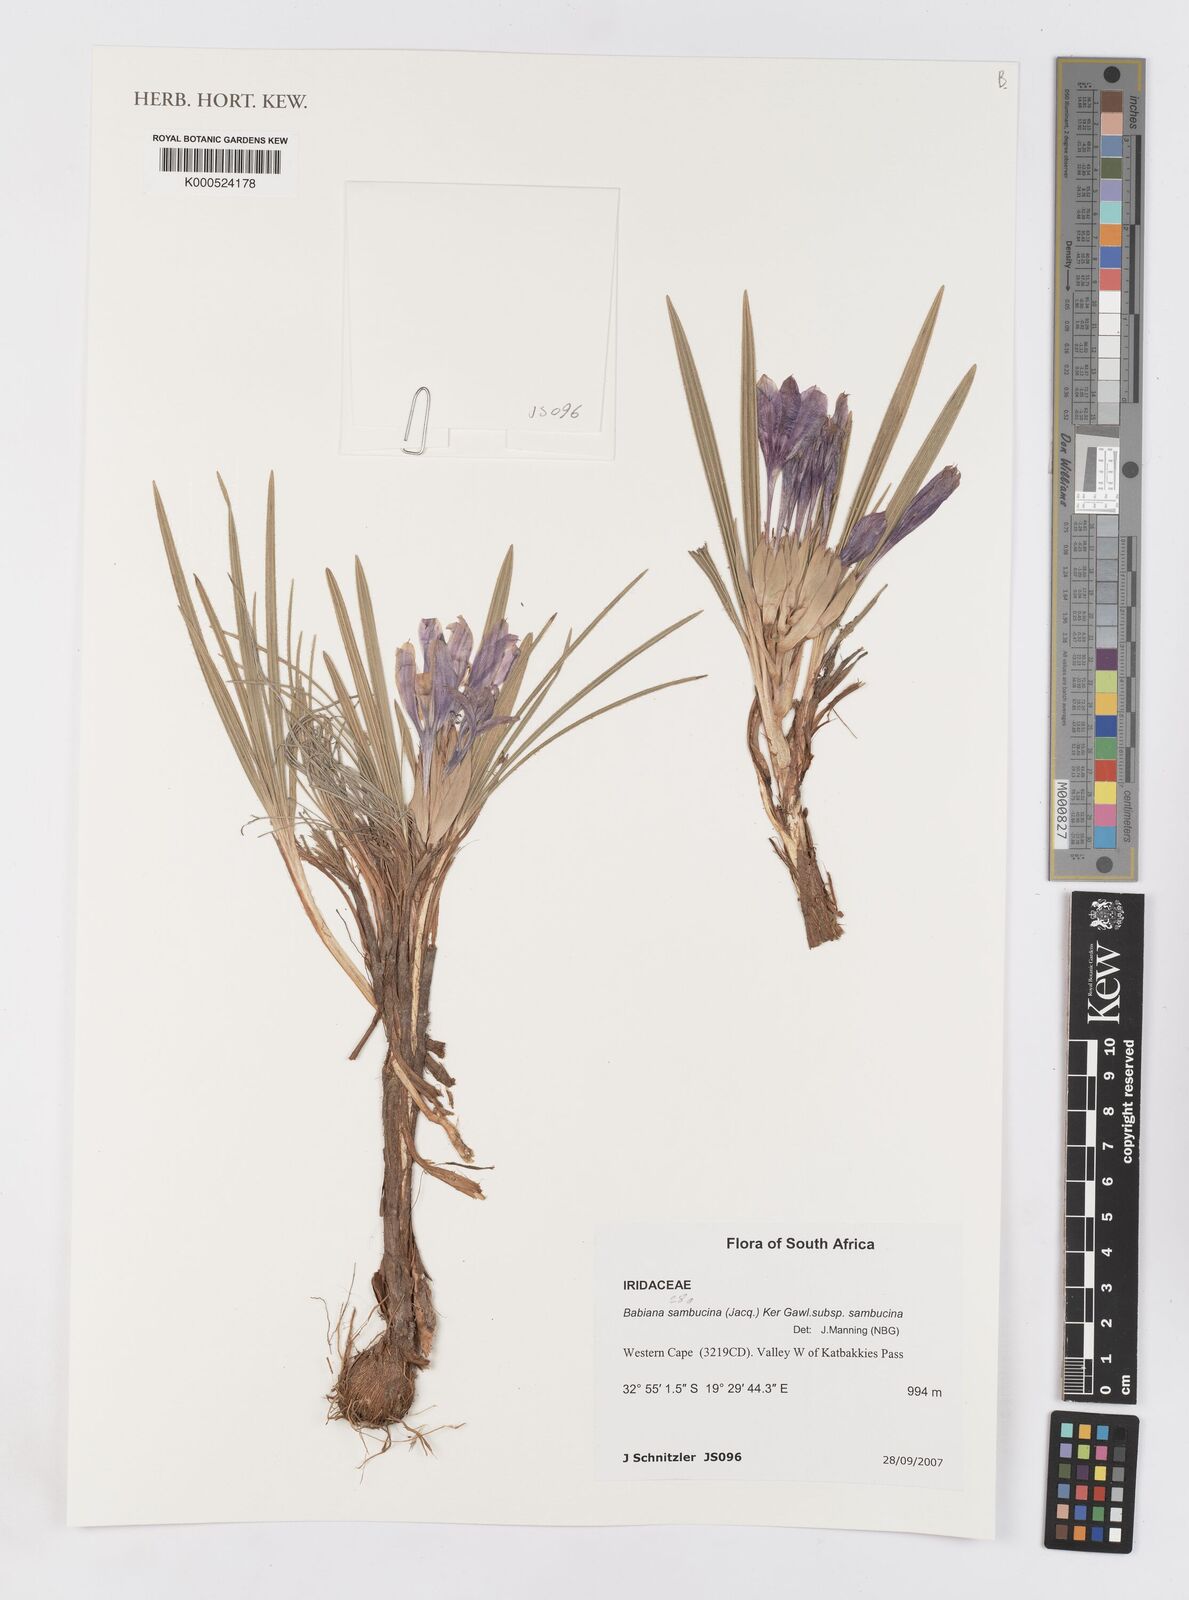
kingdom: Plantae
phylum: Tracheophyta
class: Liliopsida
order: Asparagales
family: Iridaceae
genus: Babiana
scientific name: Babiana sambucina
